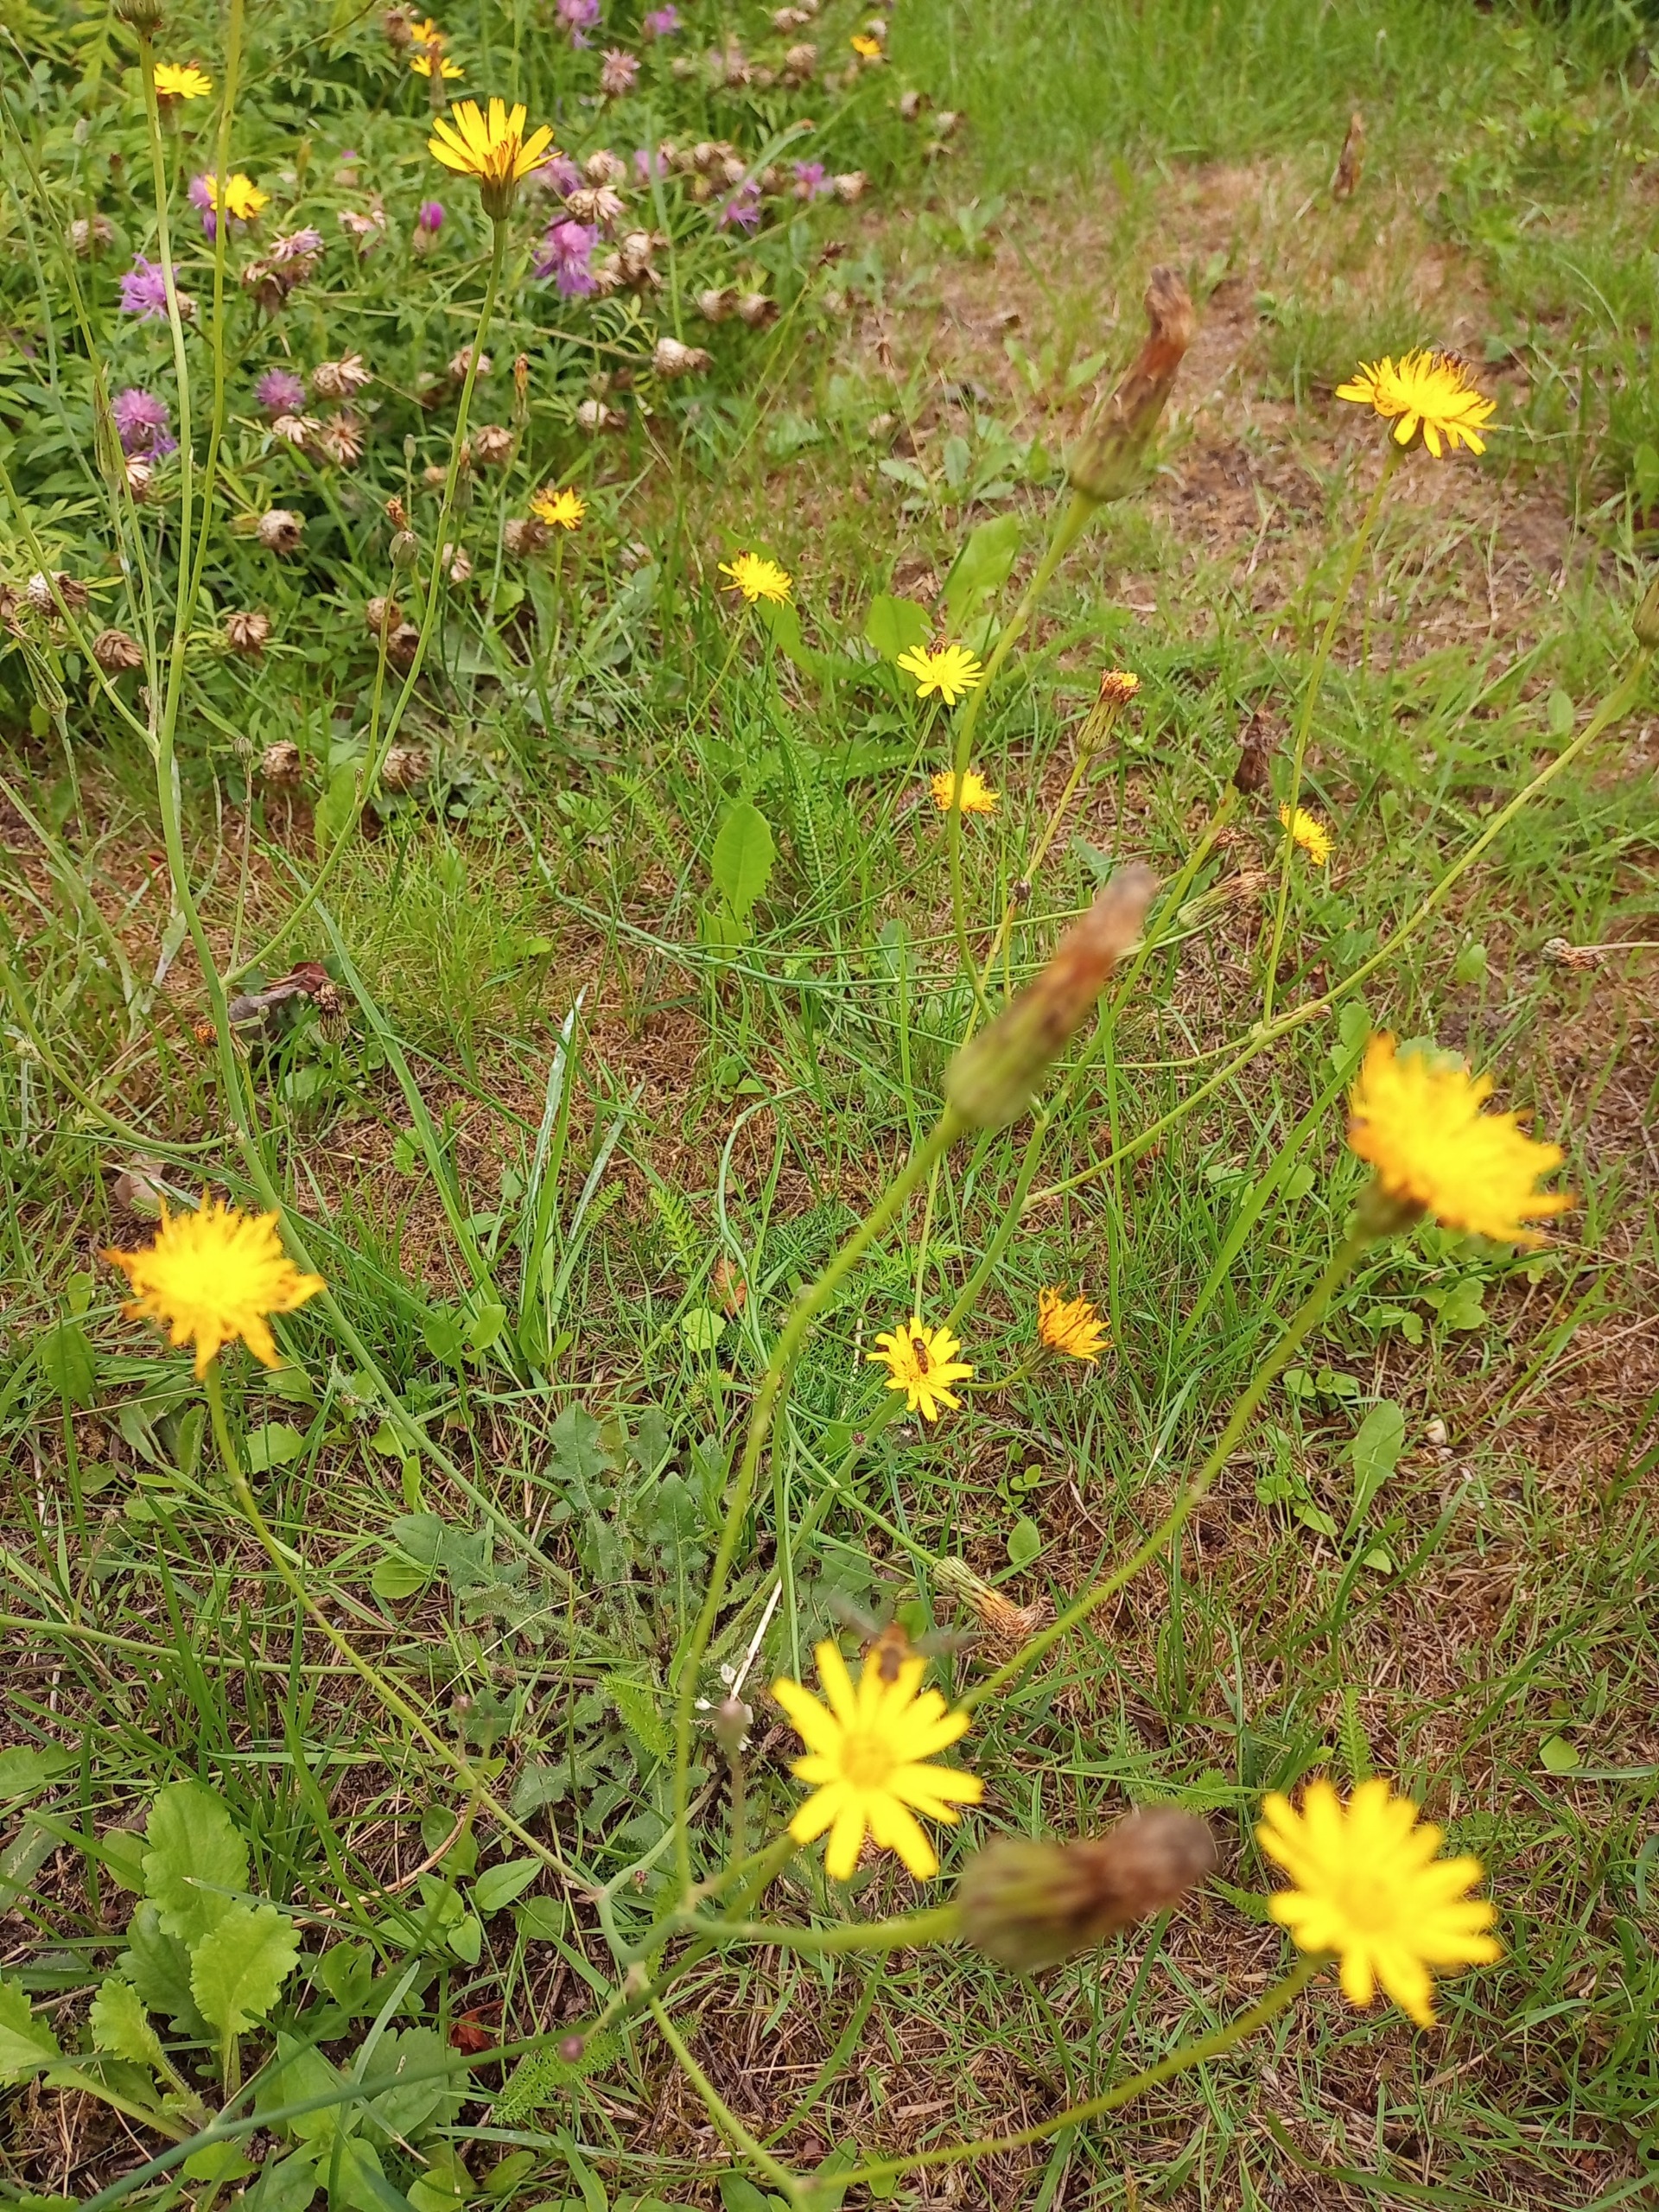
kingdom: Plantae
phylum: Tracheophyta
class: Magnoliopsida
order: Asterales
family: Asteraceae
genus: Hypochaeris
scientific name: Hypochaeris radicata
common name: Almindelig kongepen
